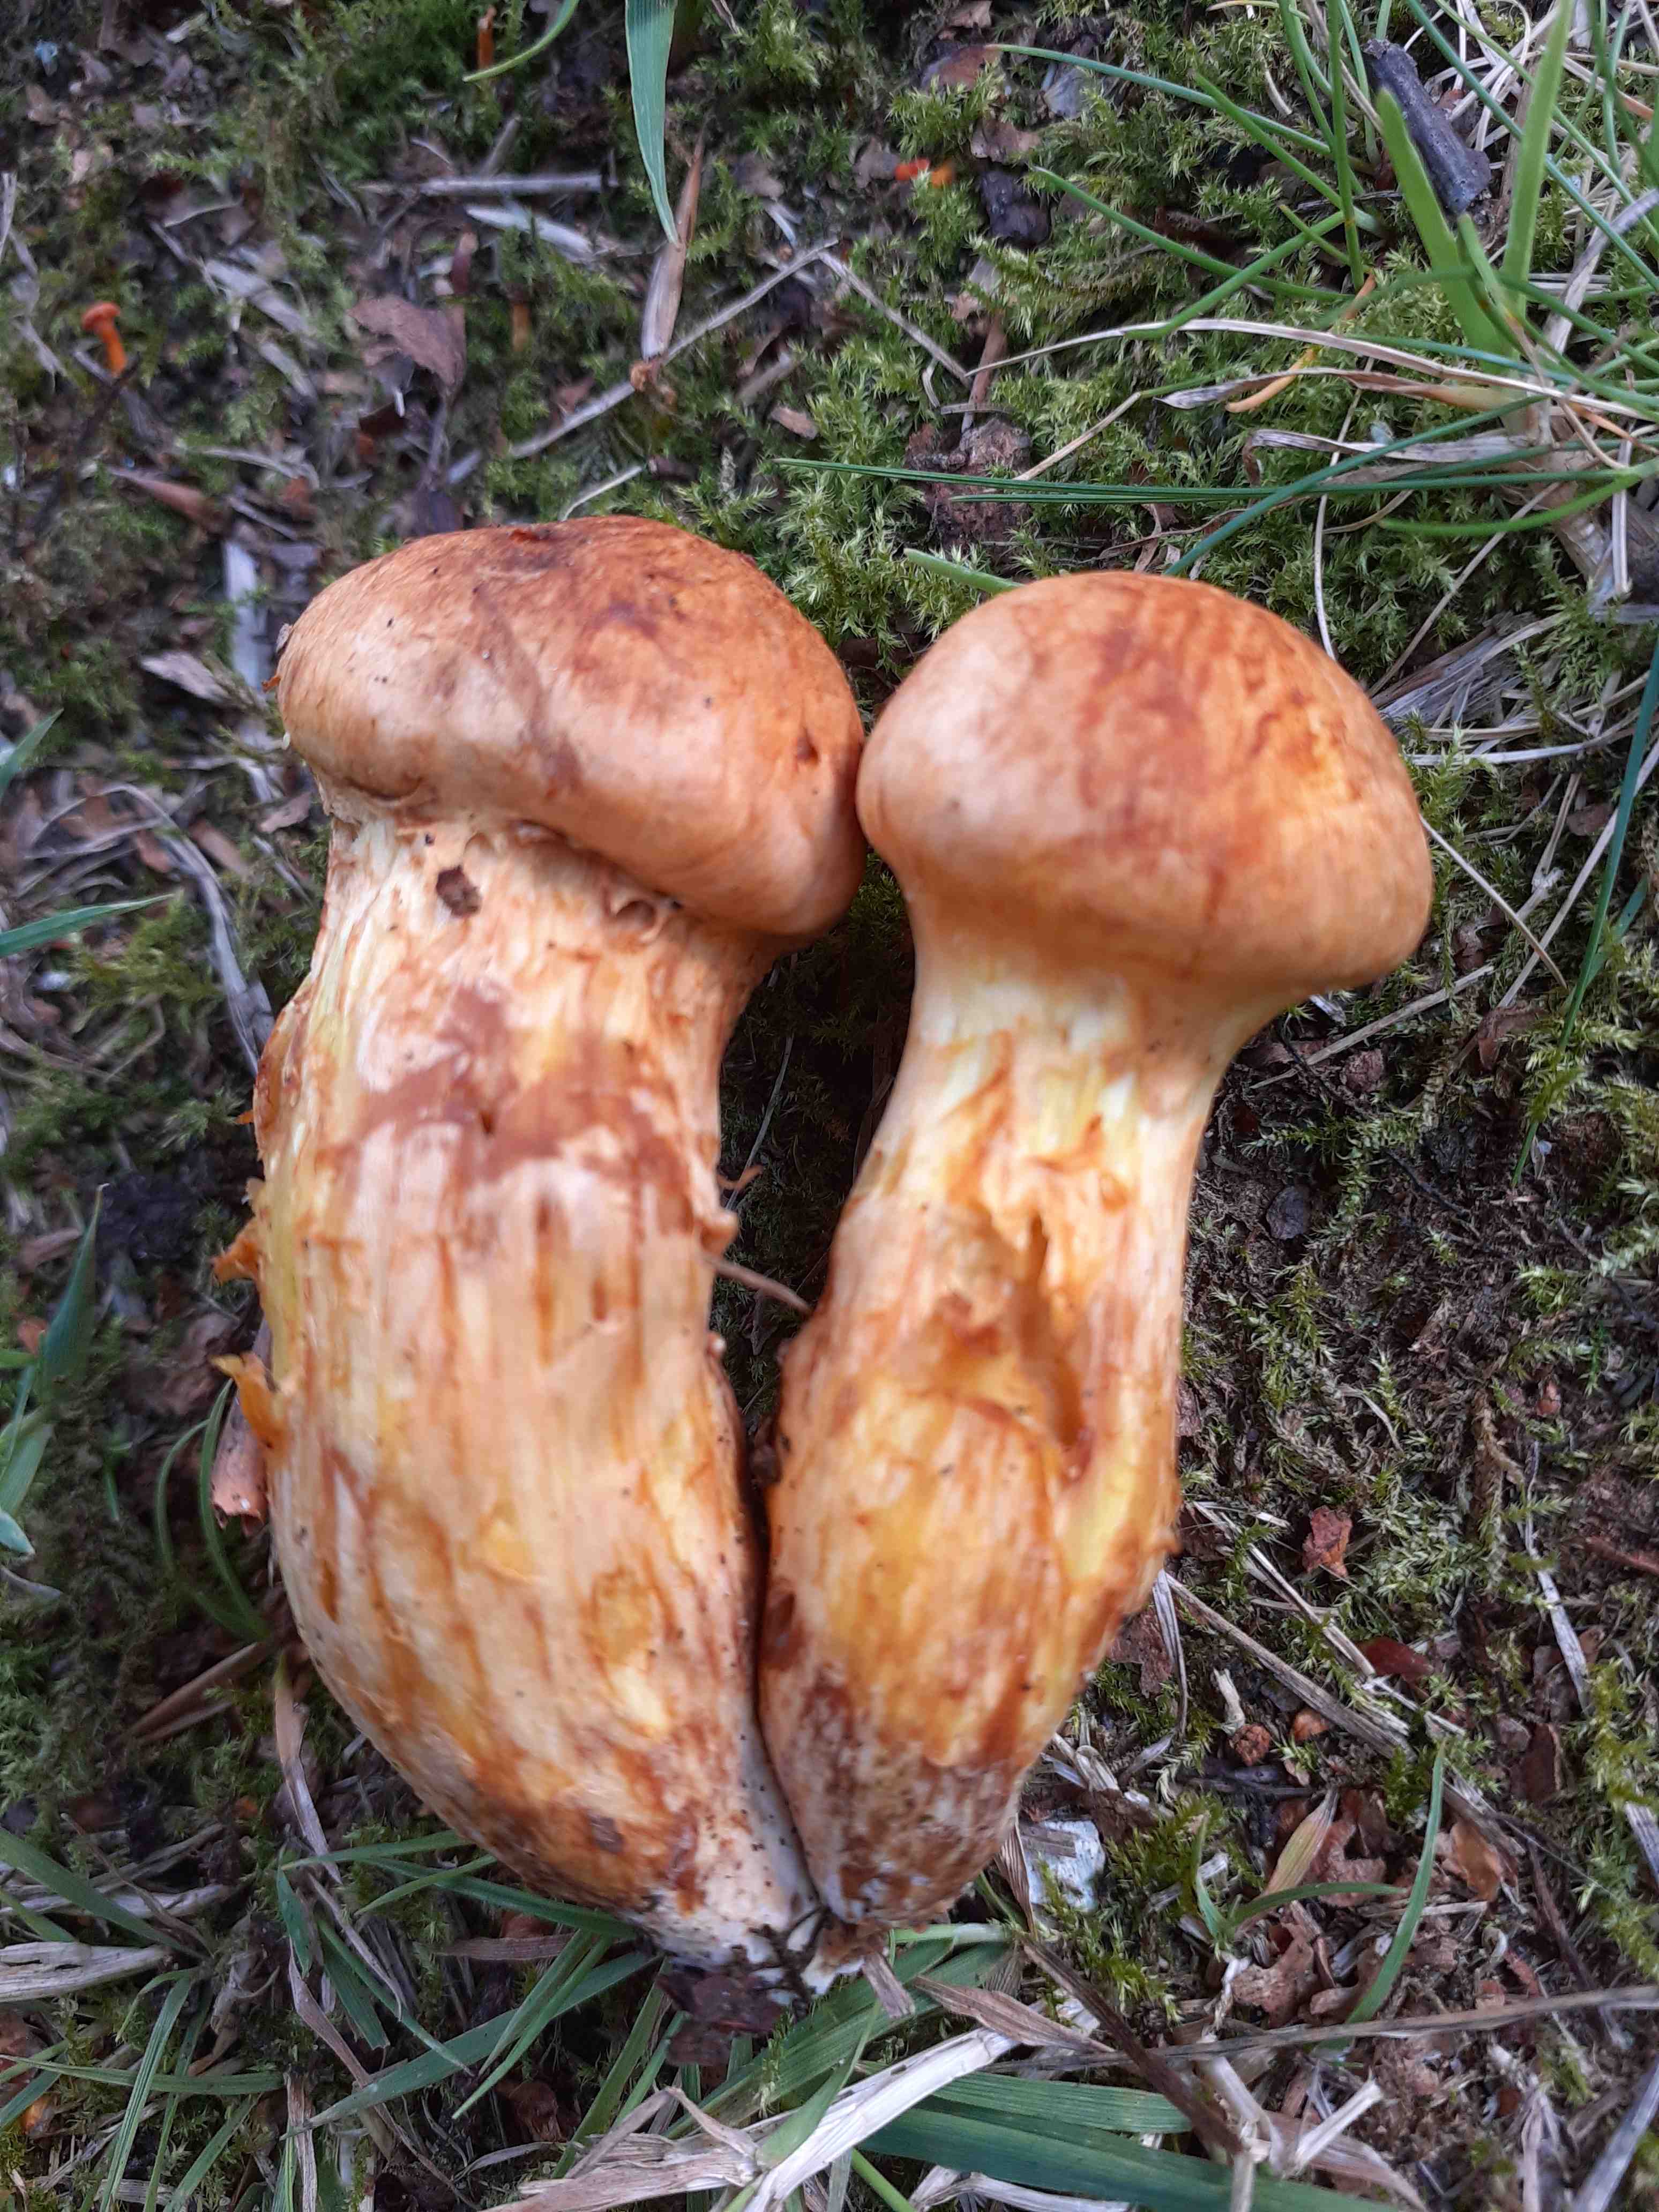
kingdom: Fungi
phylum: Basidiomycota
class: Agaricomycetes
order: Agaricales
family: Hymenogastraceae
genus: Gymnopilus
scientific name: Gymnopilus spectabilis
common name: fibret flammehat
